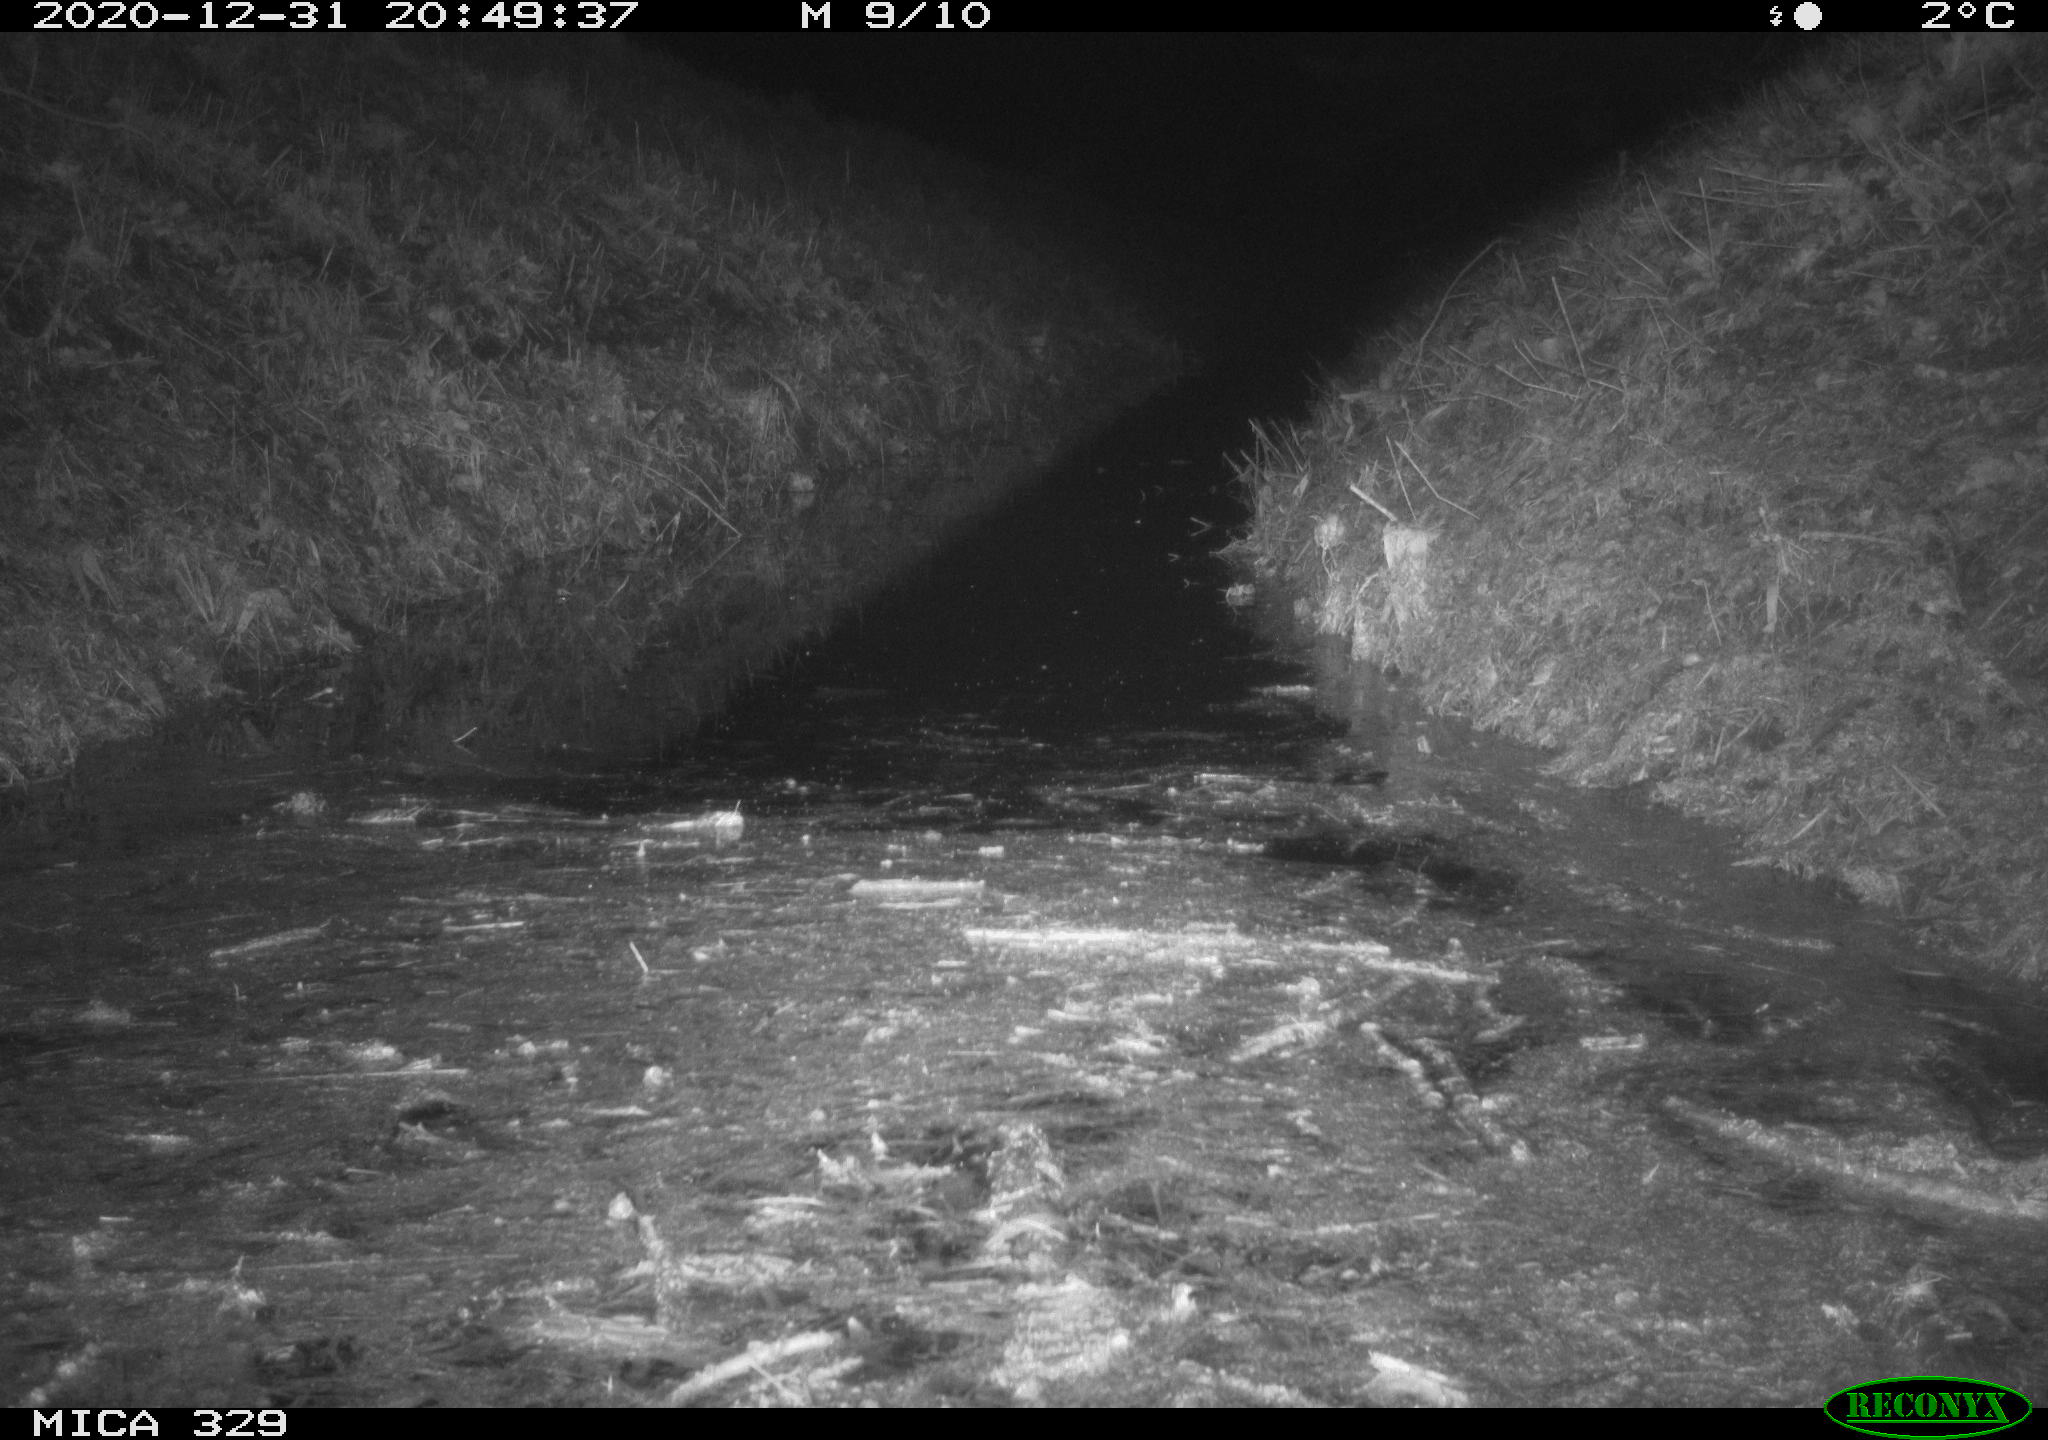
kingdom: Animalia
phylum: Chordata
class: Mammalia
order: Rodentia
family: Myocastoridae
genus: Myocastor
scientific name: Myocastor coypus
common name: Coypu
